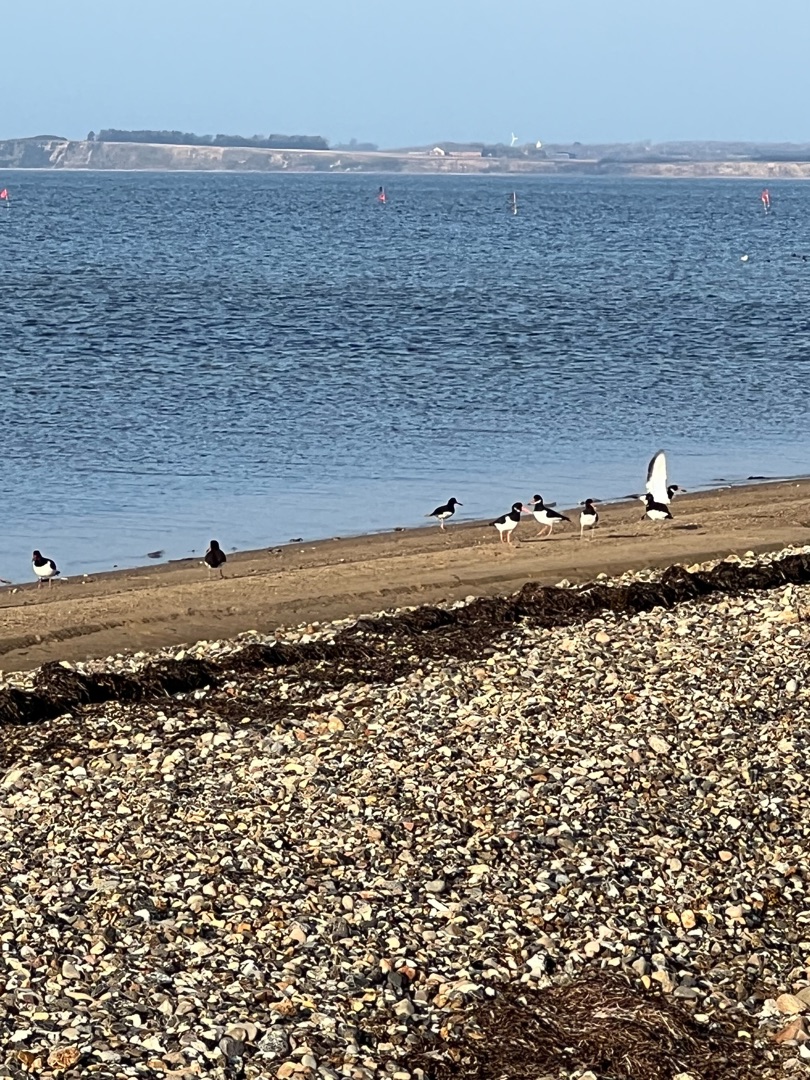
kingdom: Animalia
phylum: Chordata
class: Aves
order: Charadriiformes
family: Haematopodidae
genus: Haematopus
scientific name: Haematopus ostralegus
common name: Strandskade
